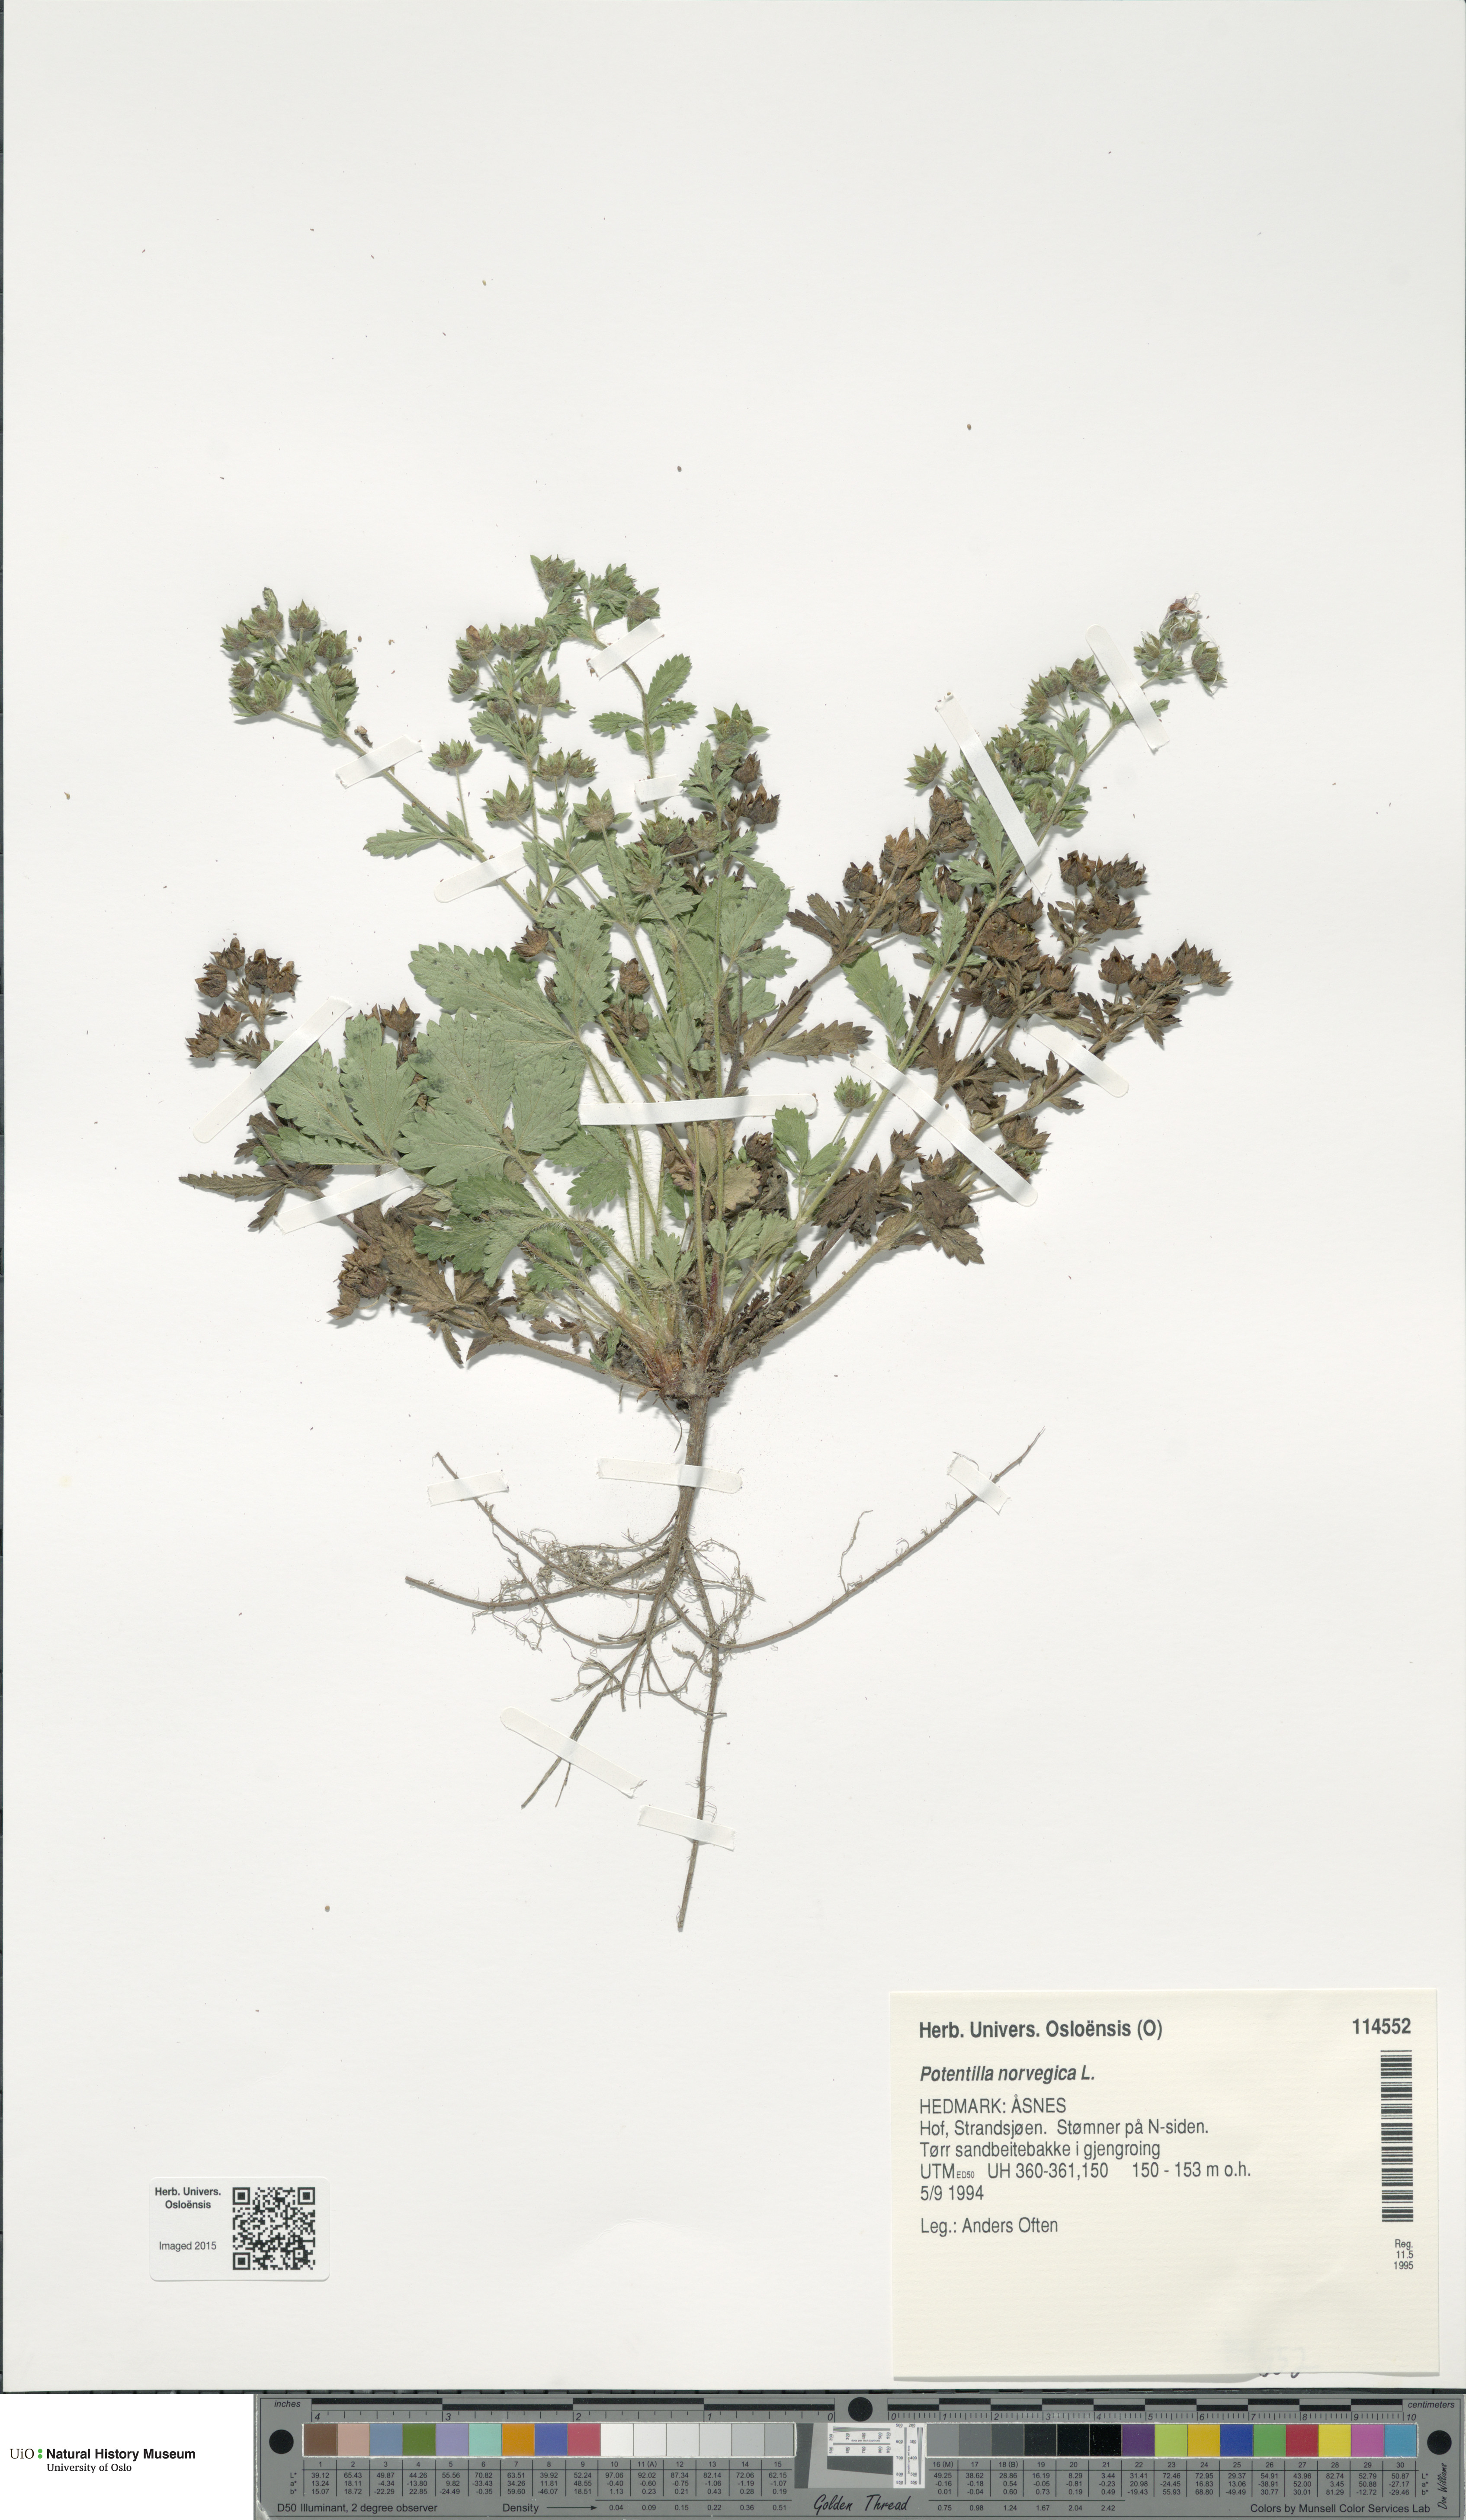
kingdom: Plantae
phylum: Tracheophyta
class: Magnoliopsida
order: Rosales
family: Rosaceae
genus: Potentilla
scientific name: Potentilla norvegica
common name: Ternate-leaved cinquefoil
